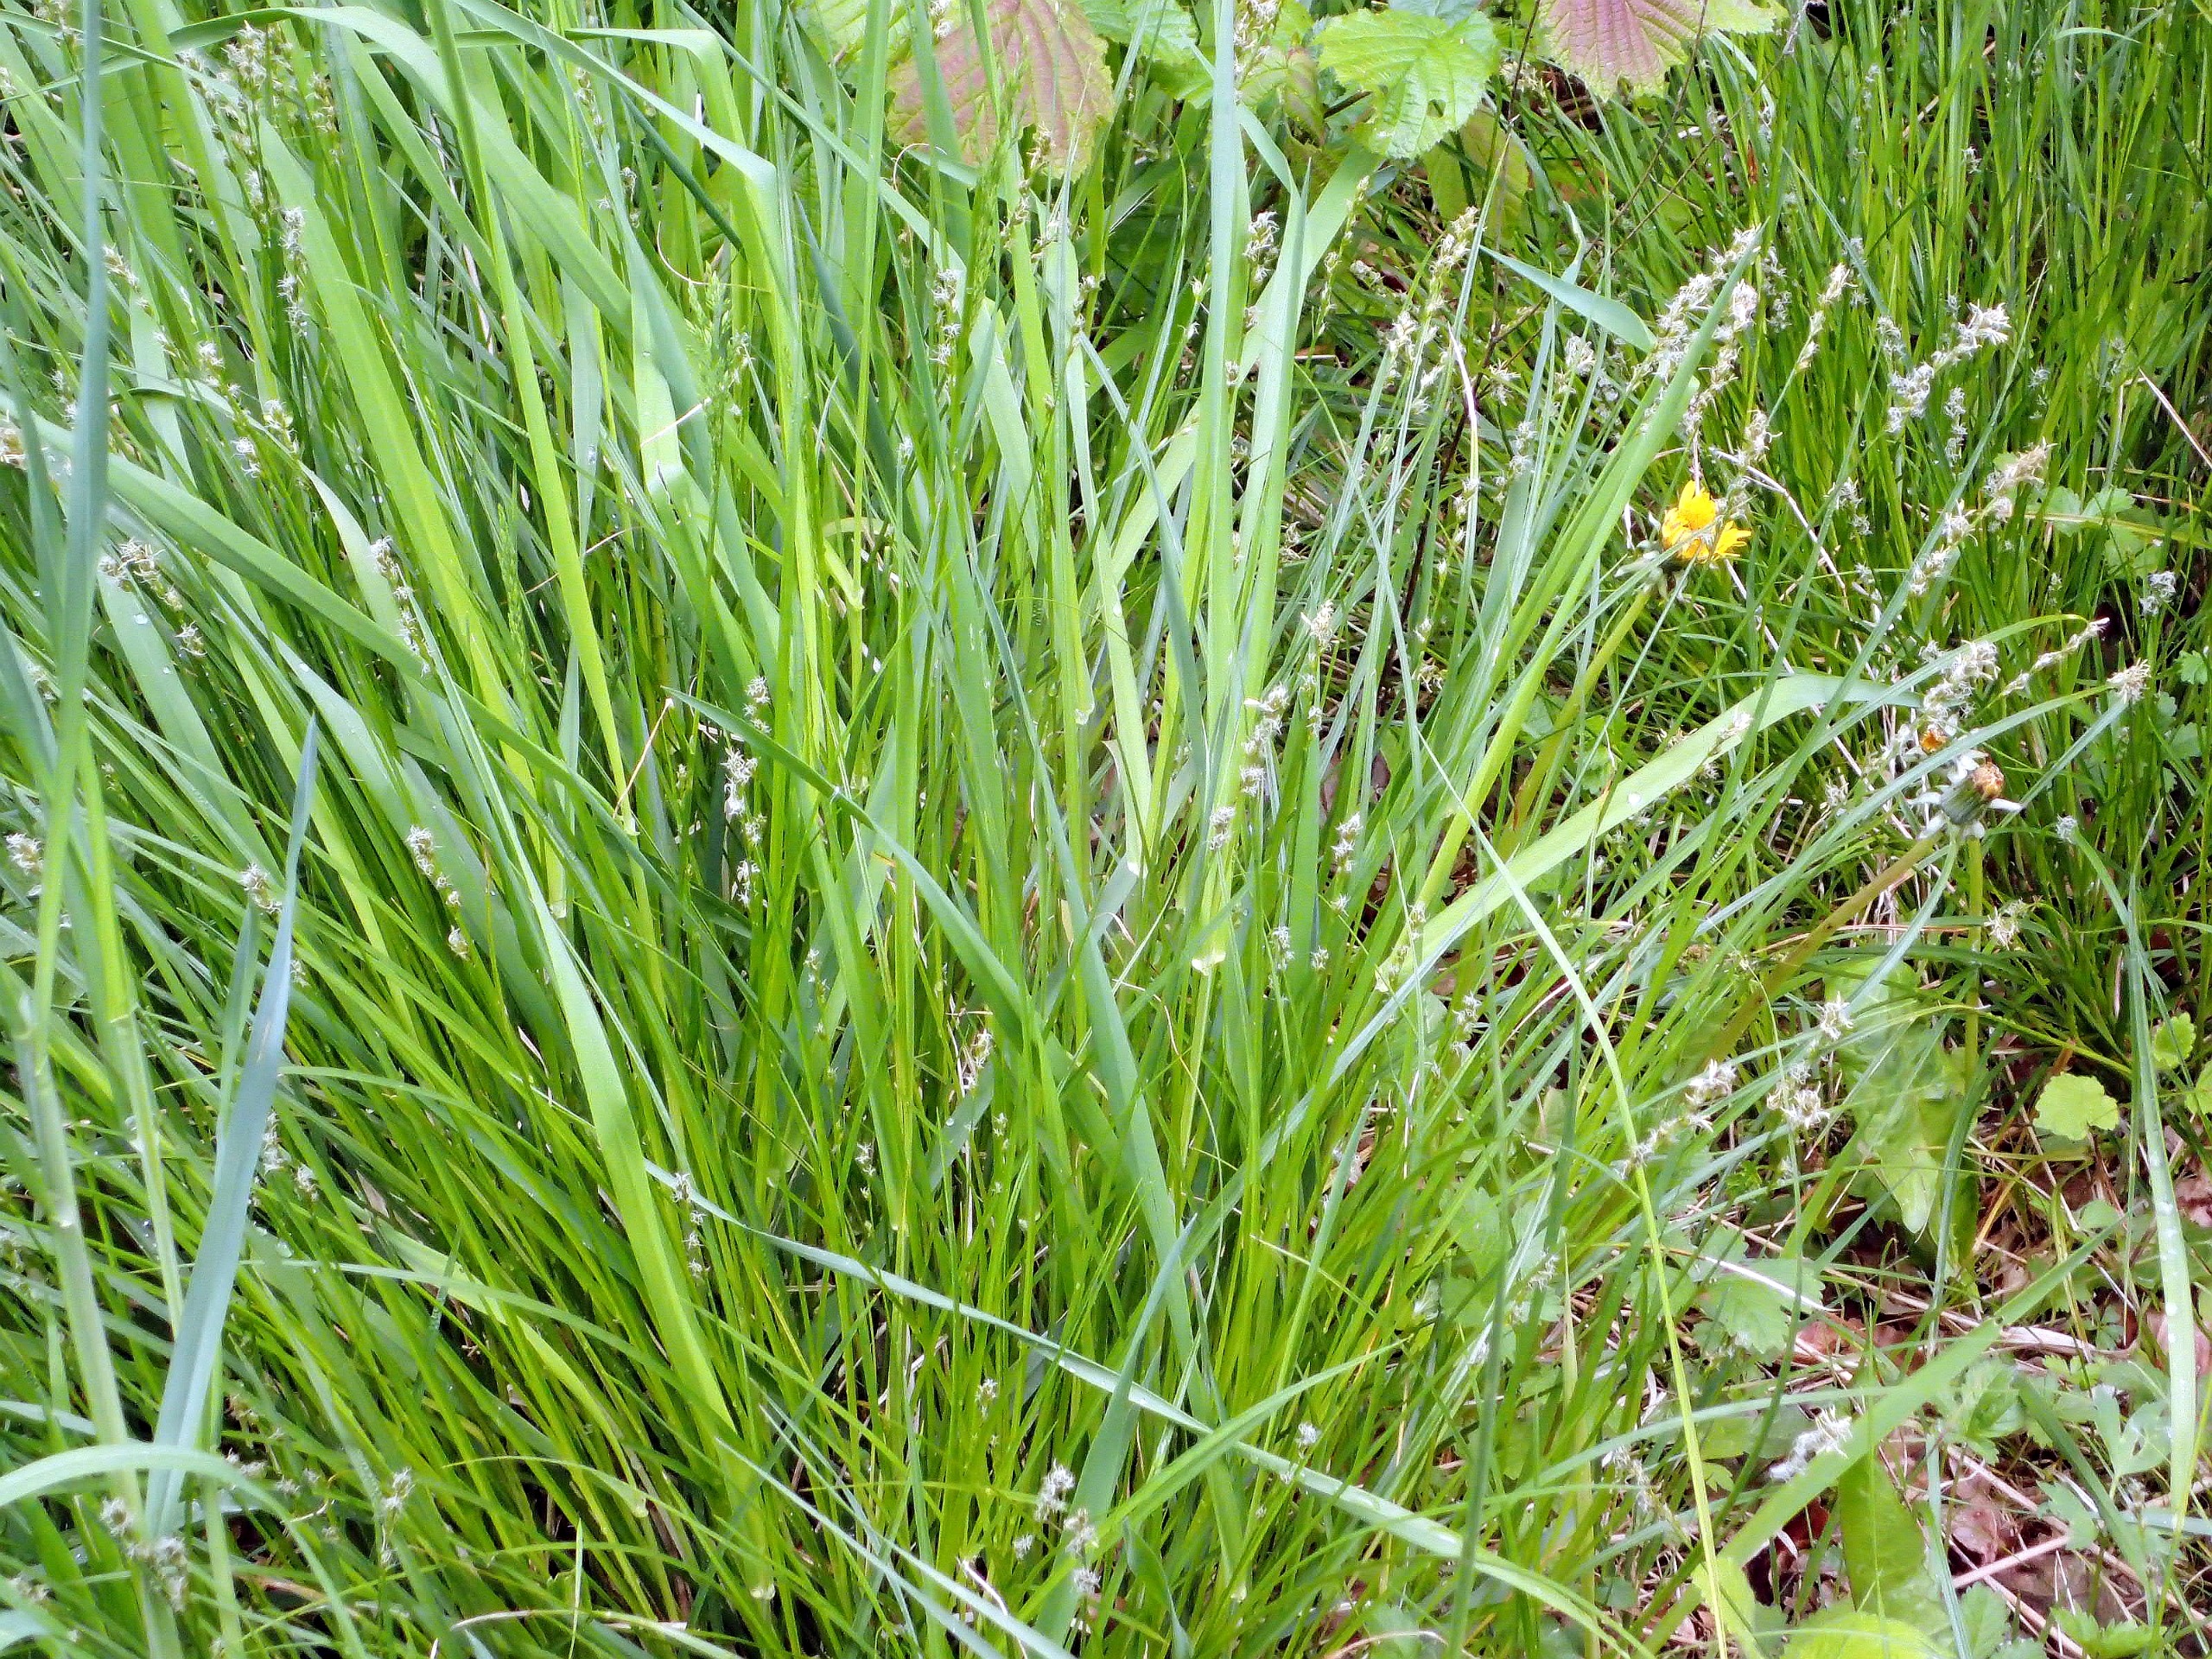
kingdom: Plantae
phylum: Tracheophyta
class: Liliopsida
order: Poales
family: Cyperaceae
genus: Carex
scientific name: Carex divulsa
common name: Mellembrudt star
